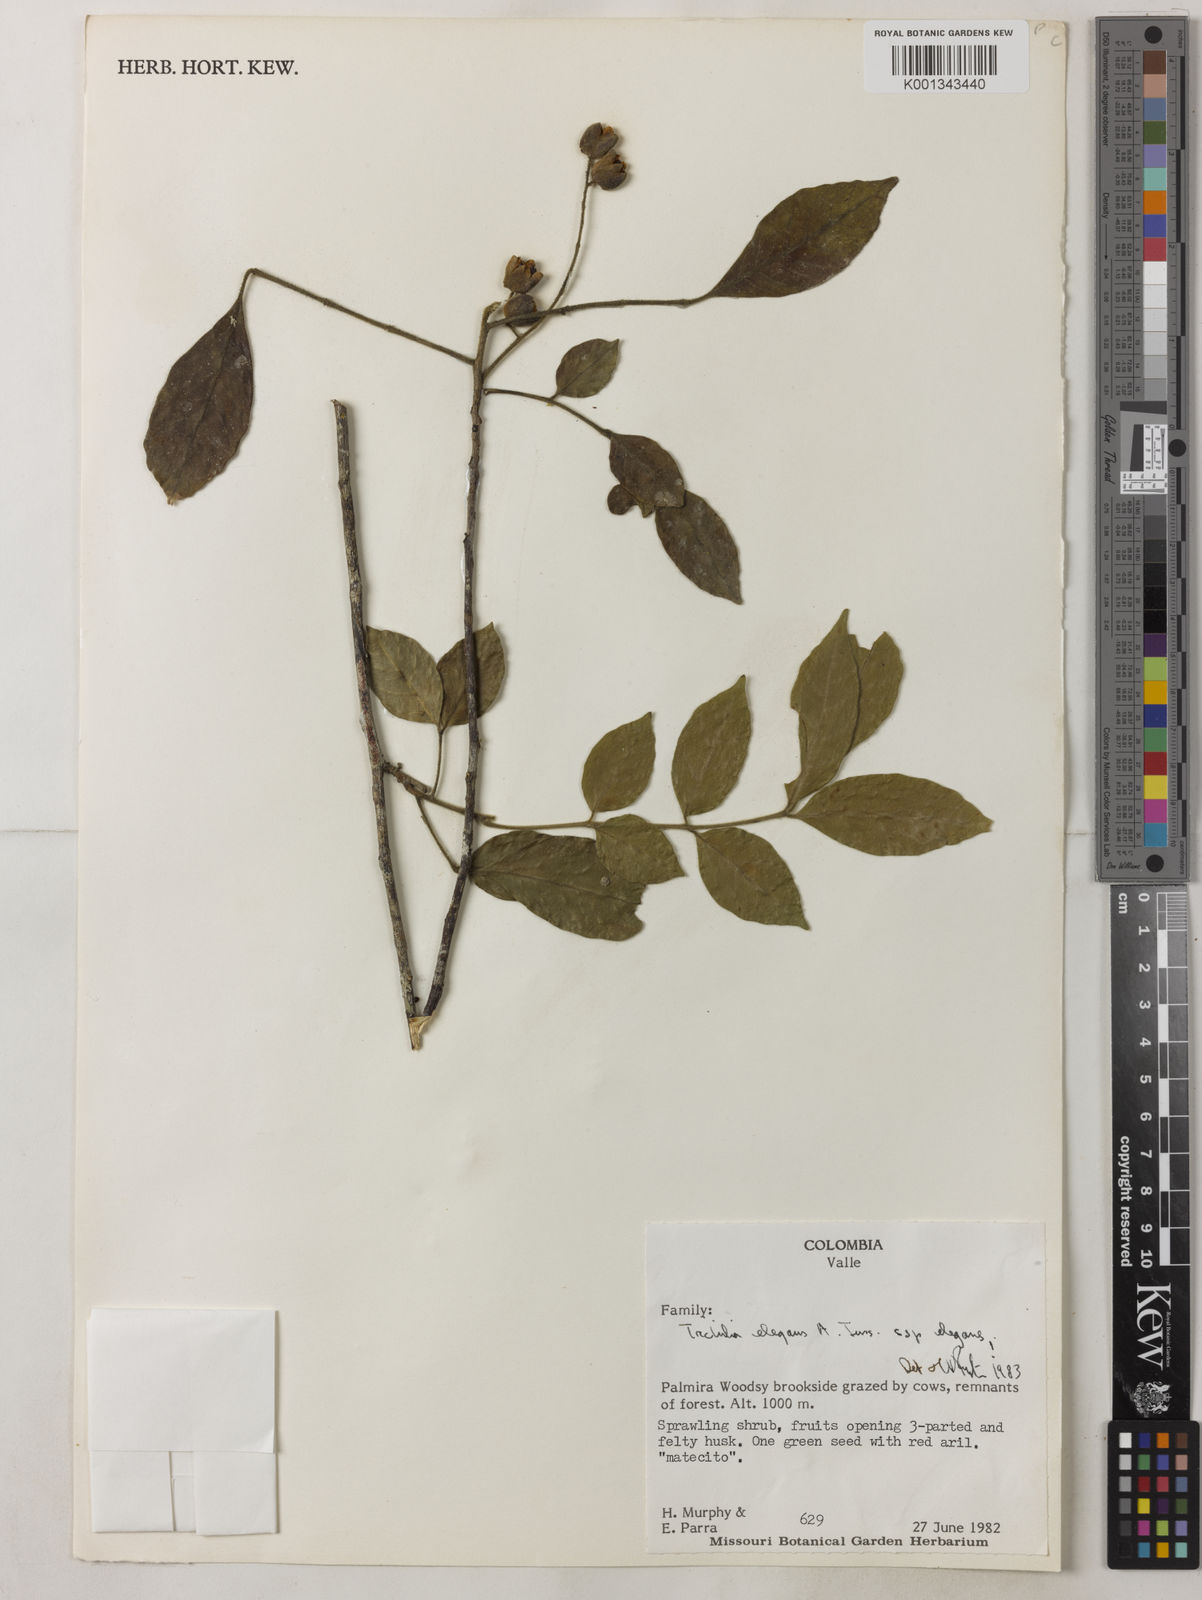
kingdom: Plantae
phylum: Tracheophyta
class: Magnoliopsida
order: Sapindales
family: Meliaceae
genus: Trichilia
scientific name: Trichilia elegans
